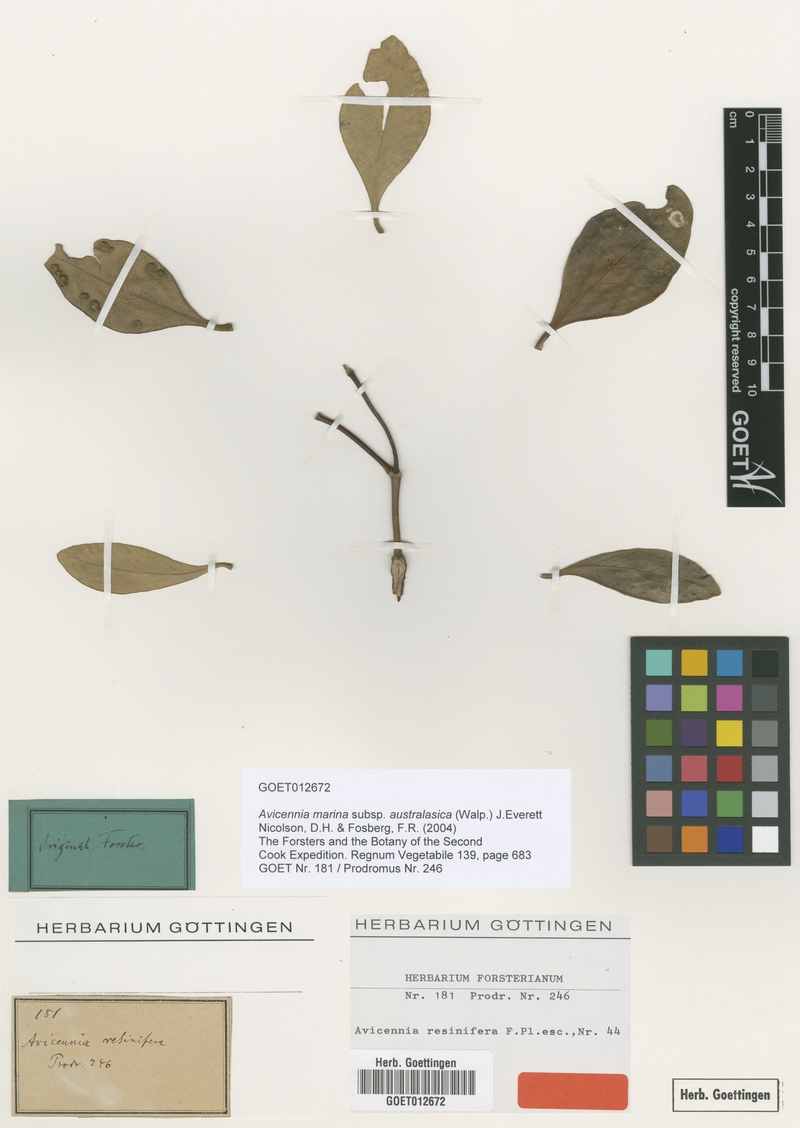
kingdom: Plantae
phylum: Tracheophyta
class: Magnoliopsida
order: Lamiales
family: Acanthaceae
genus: Avicennia
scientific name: Avicennia marina
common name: Gray mangrove
